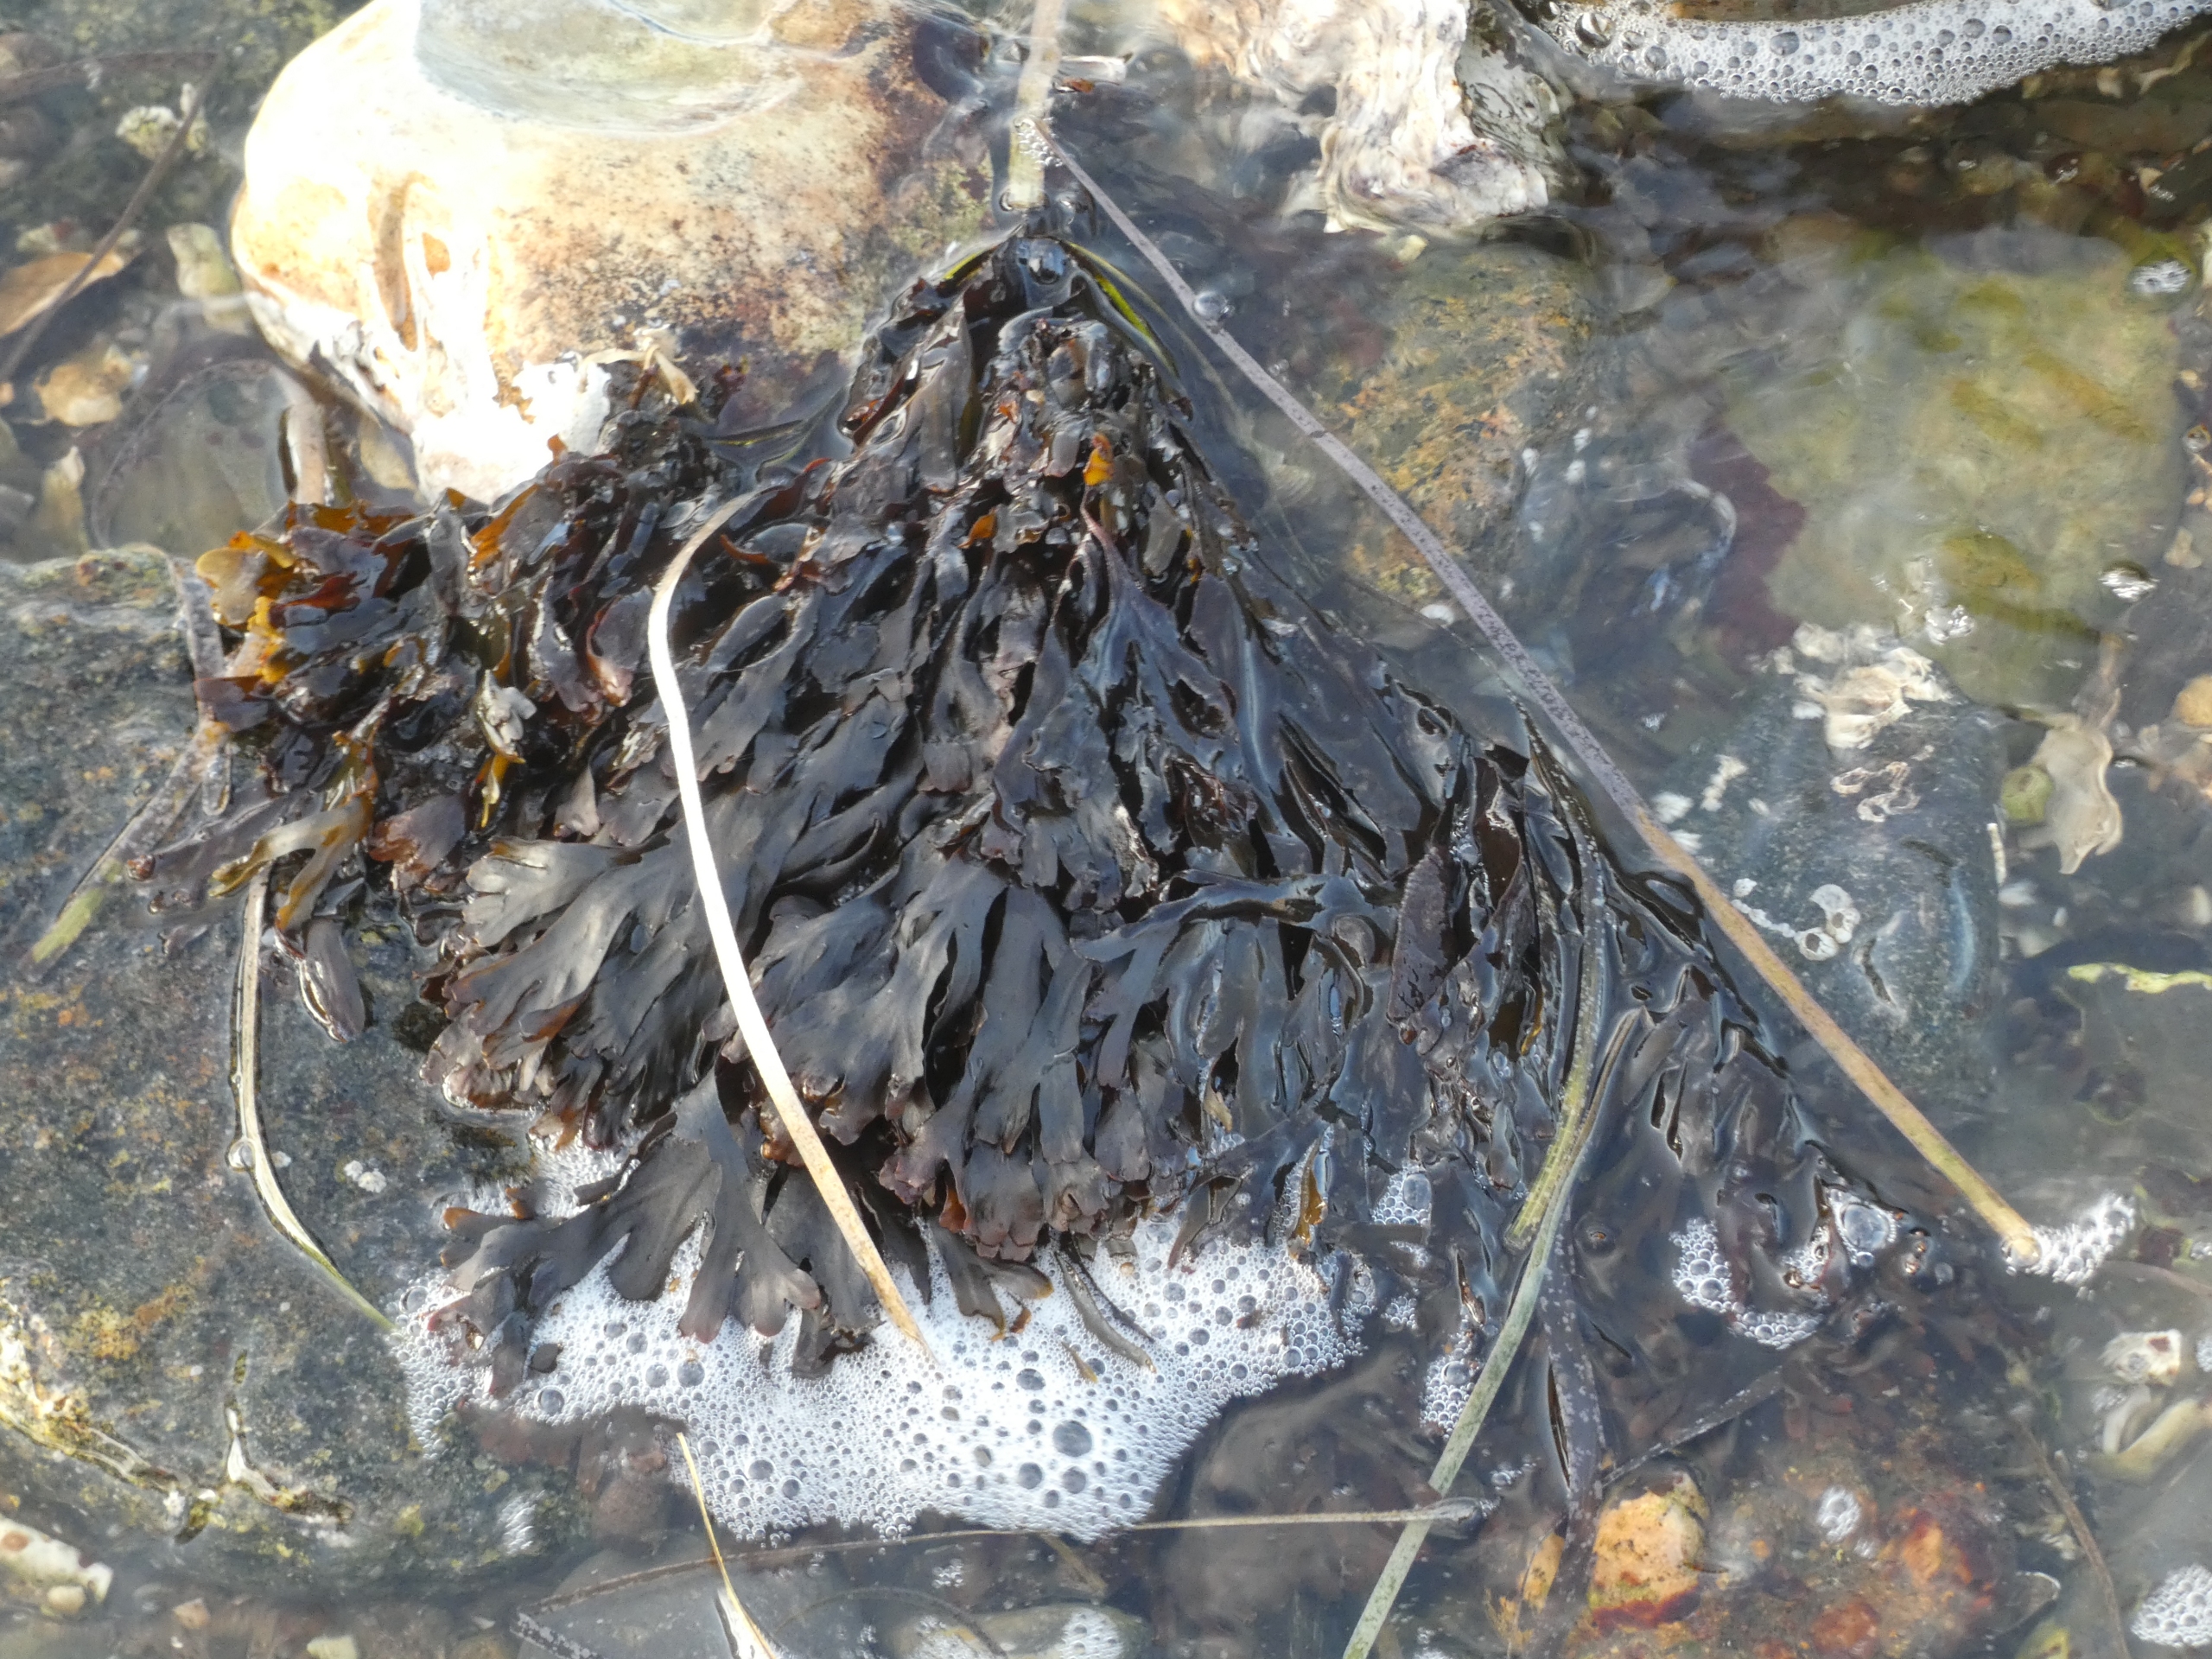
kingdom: Chromista
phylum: Ochrophyta
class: Phaeophyceae
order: Fucales
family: Fucaceae
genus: Fucus
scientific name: Fucus vesiculosus
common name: Blæretang
